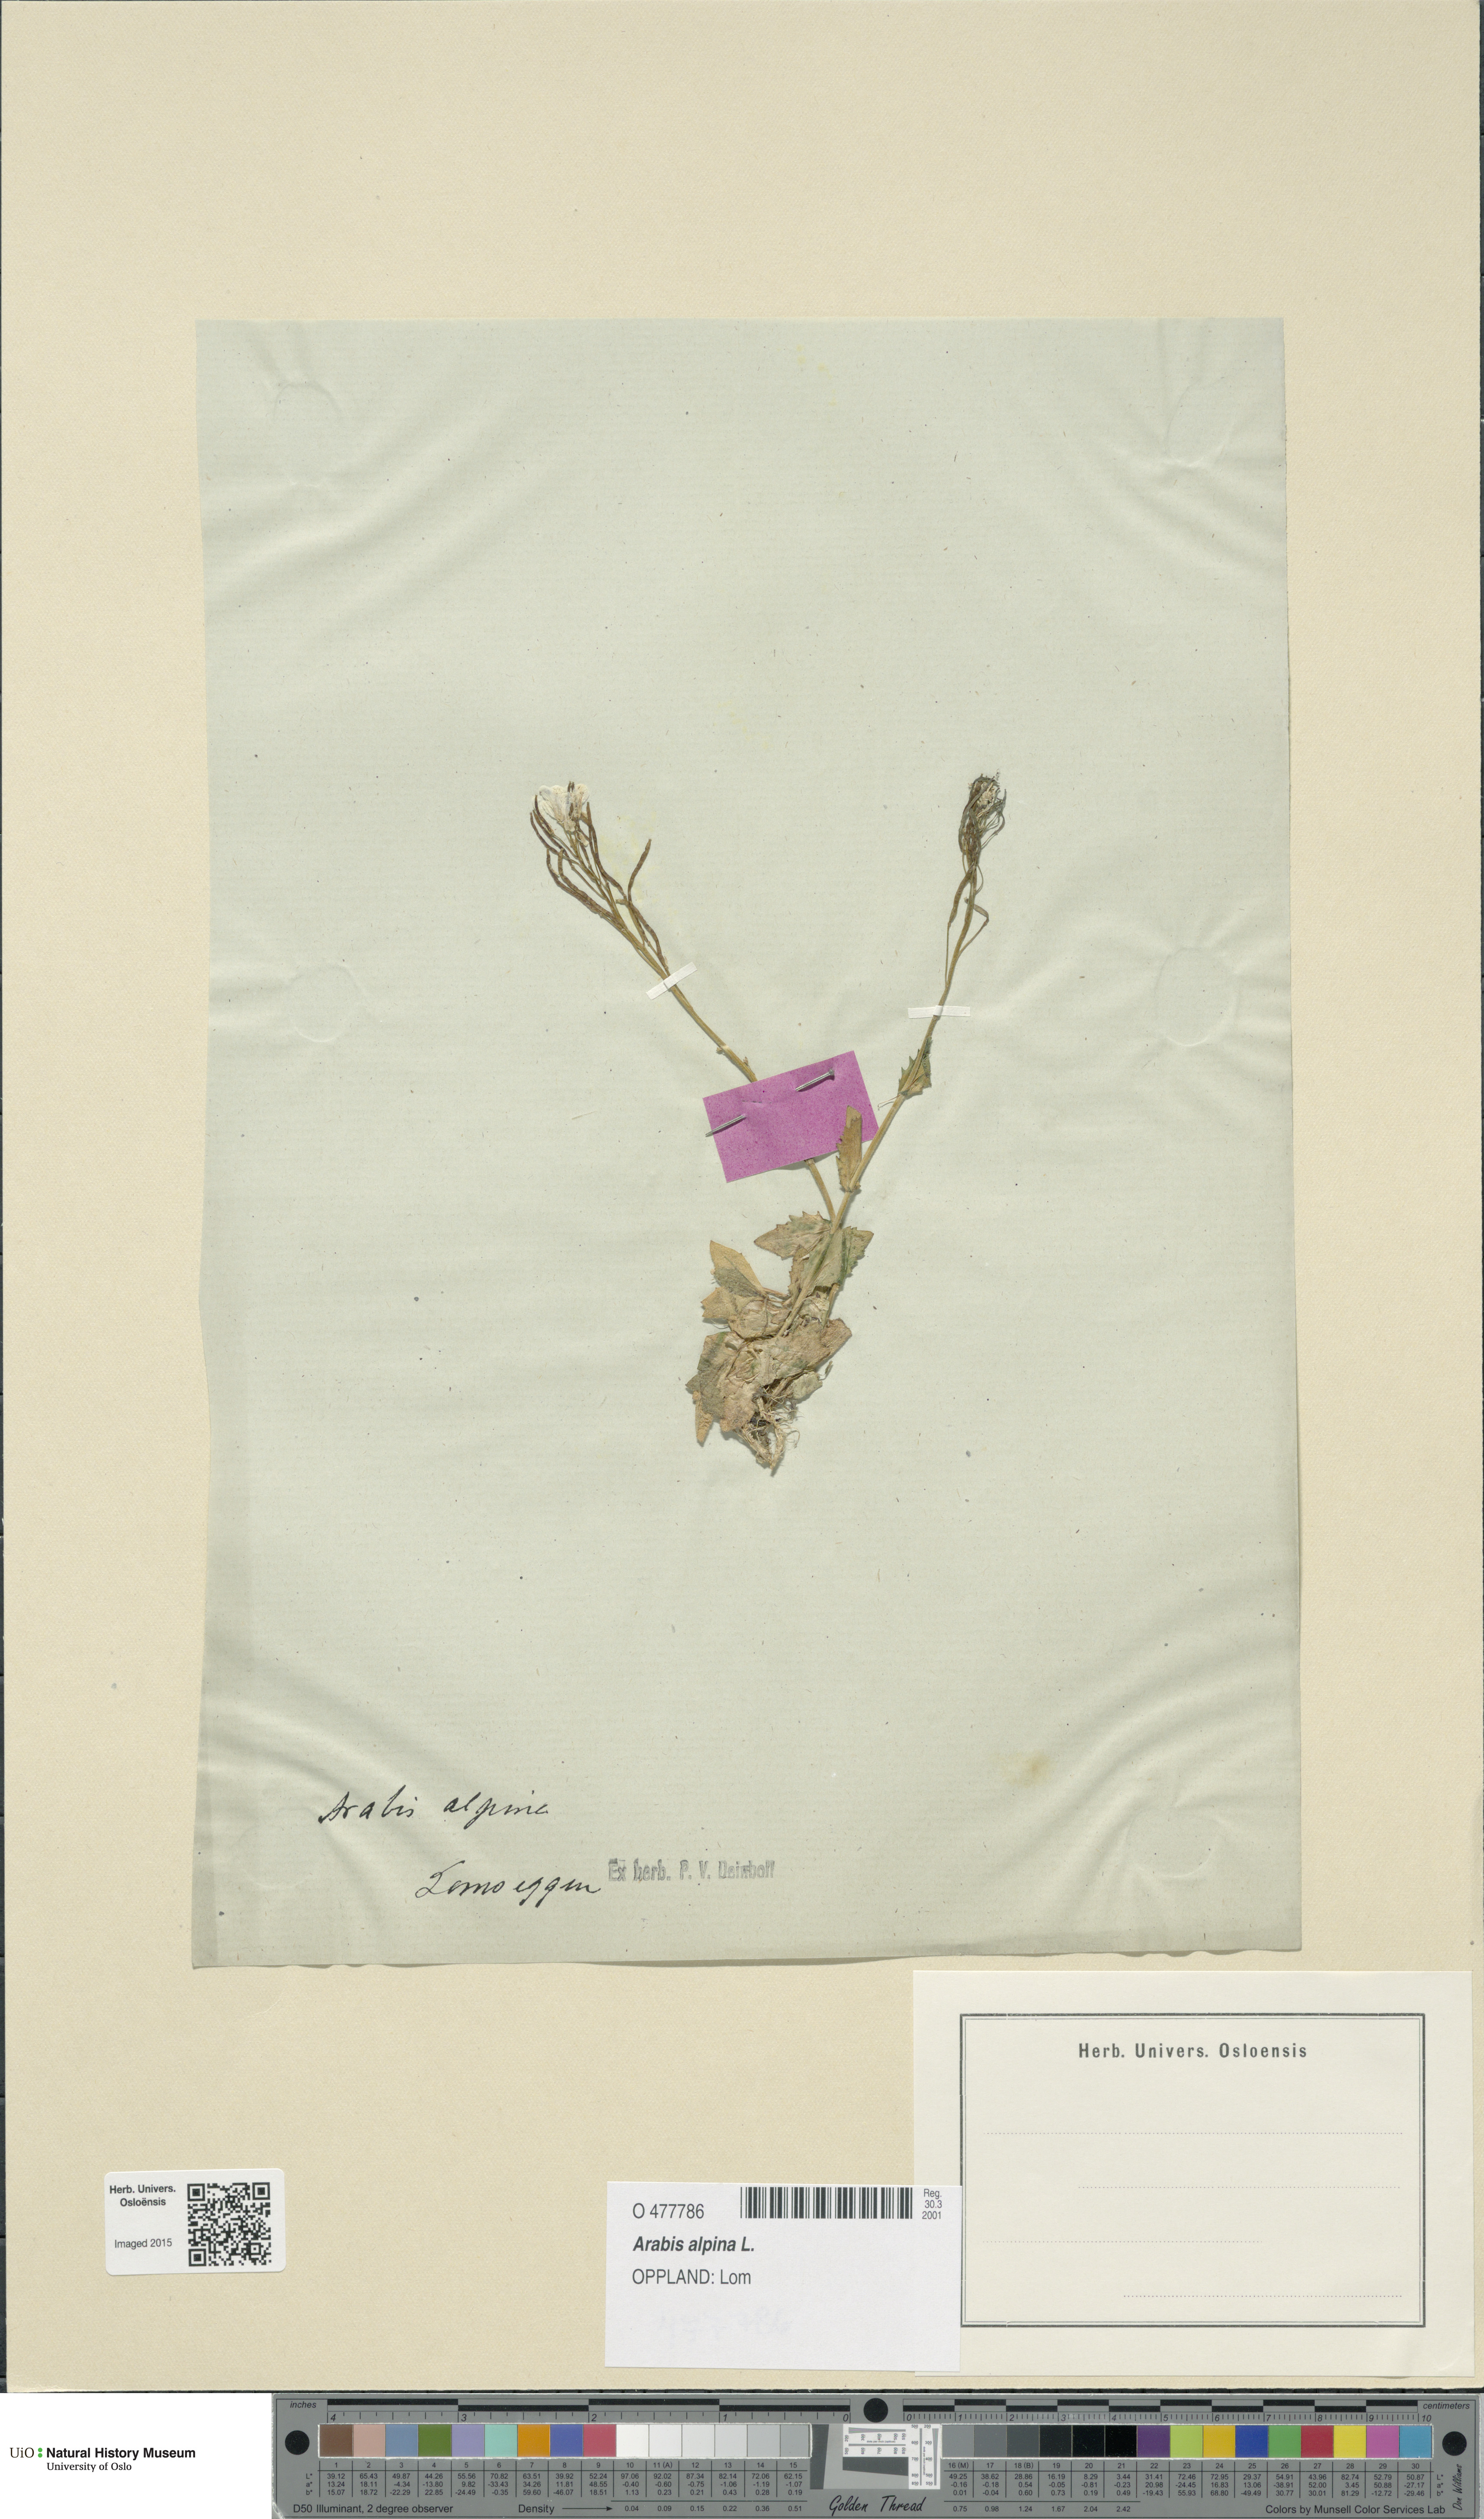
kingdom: Plantae
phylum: Tracheophyta
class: Magnoliopsida
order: Brassicales
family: Brassicaceae
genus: Arabis
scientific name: Arabis alpina
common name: Alpine rock-cress
